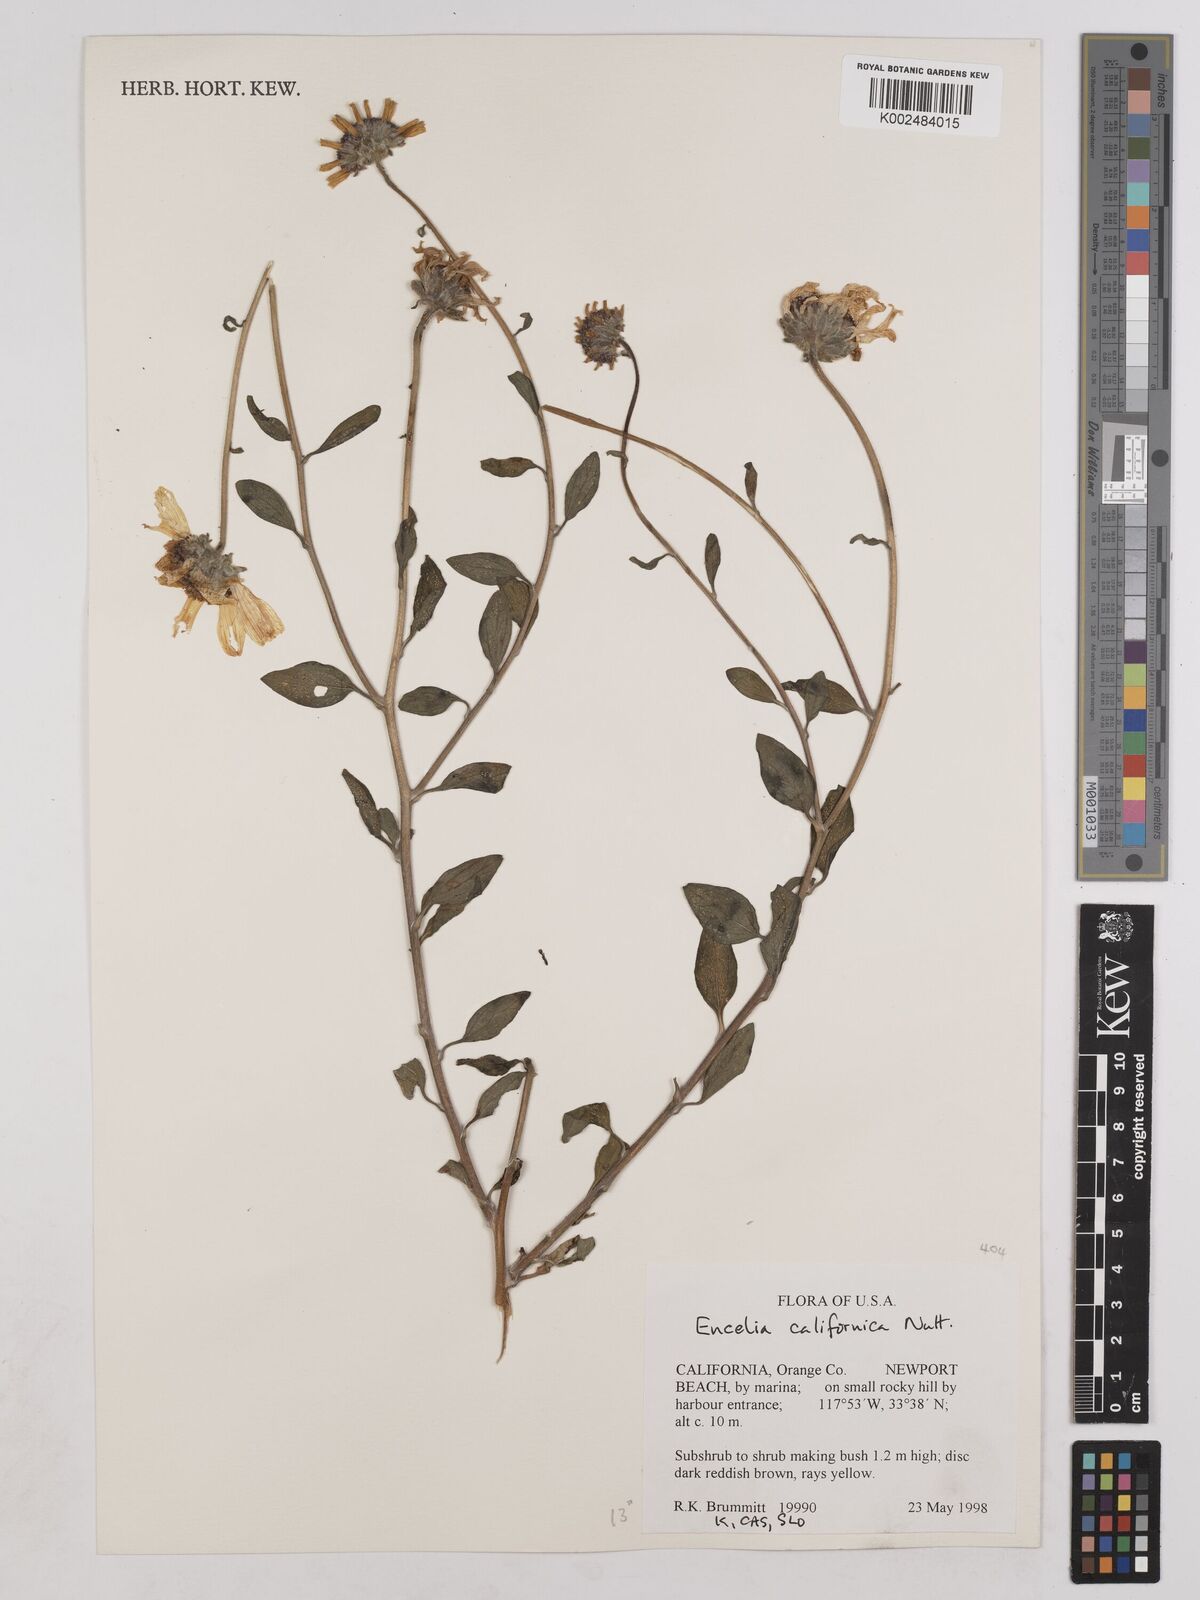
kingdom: Plantae
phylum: Tracheophyta
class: Magnoliopsida
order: Asterales
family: Asteraceae
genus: Encelia
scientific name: Encelia californica
